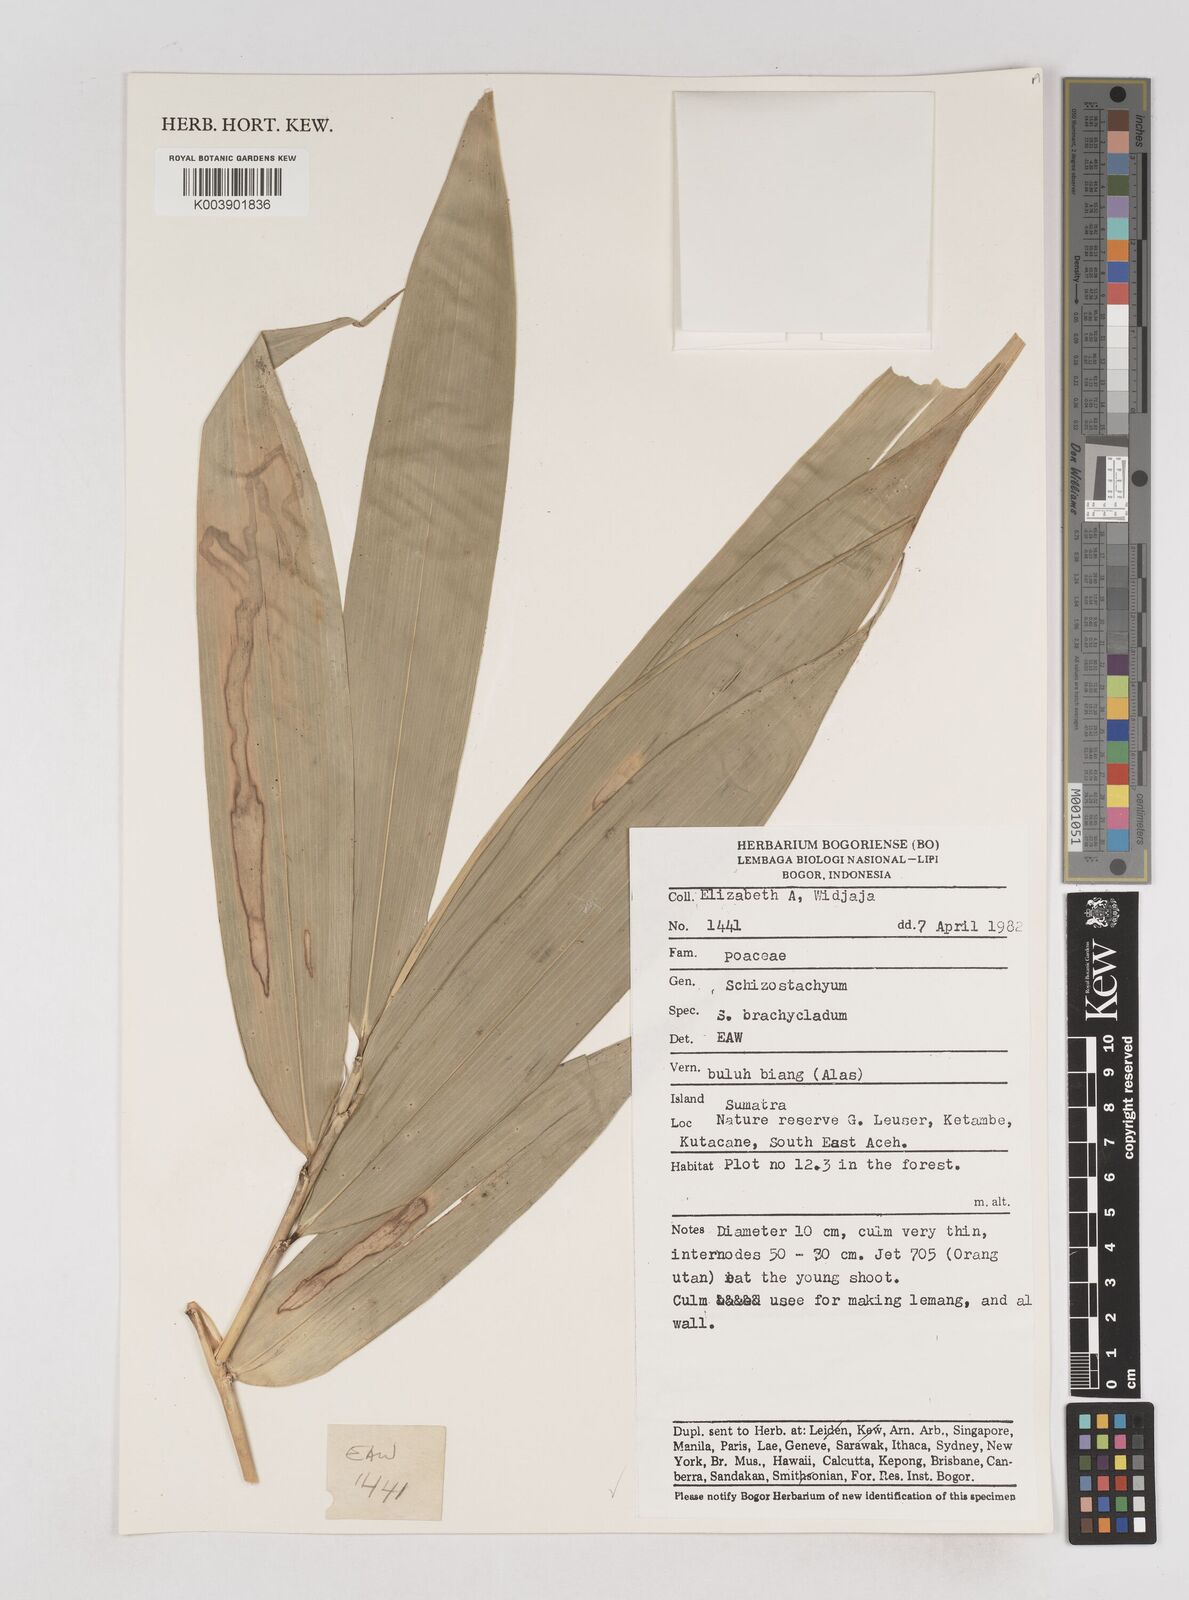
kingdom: Plantae
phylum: Tracheophyta
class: Liliopsida
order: Poales
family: Poaceae
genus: Schizostachyum
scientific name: Schizostachyum brachycladum
